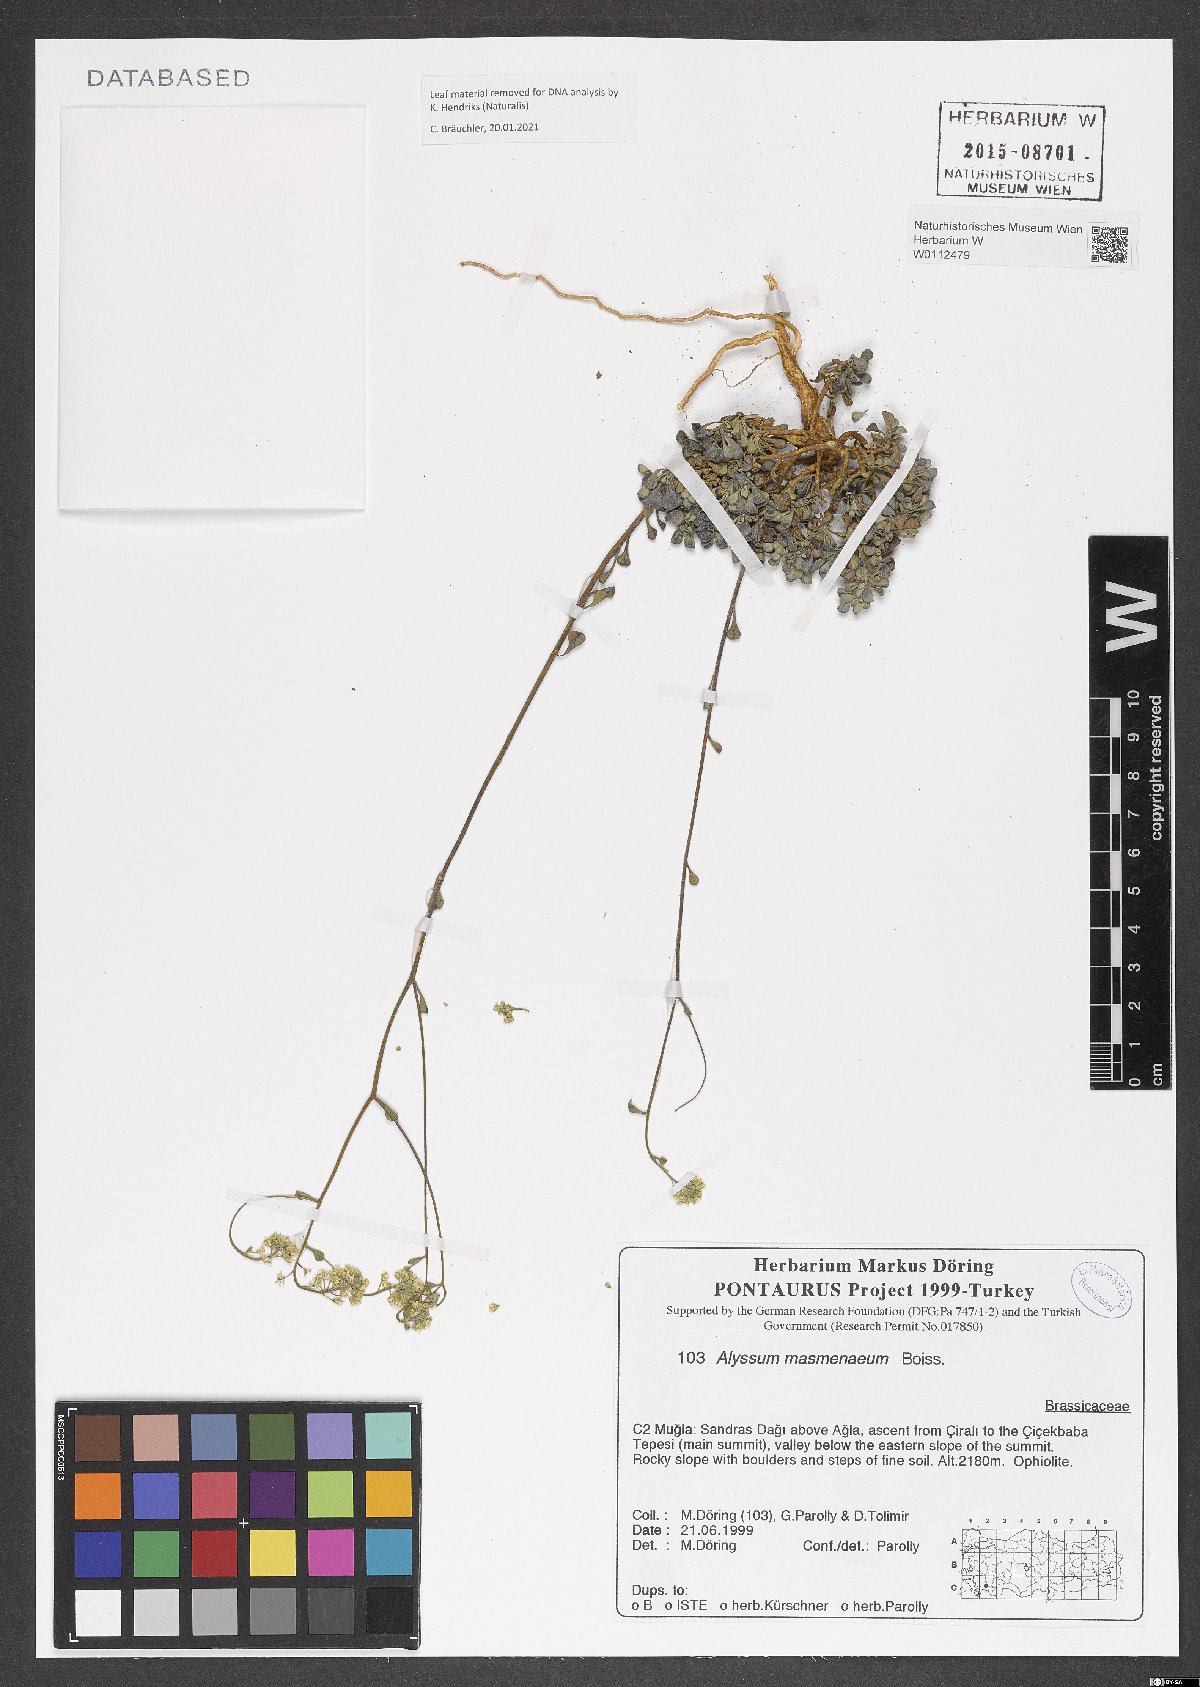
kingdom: Plantae
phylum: Tracheophyta
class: Magnoliopsida
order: Brassicales
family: Brassicaceae
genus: Odontarrhena
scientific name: Odontarrhena masmenaea
